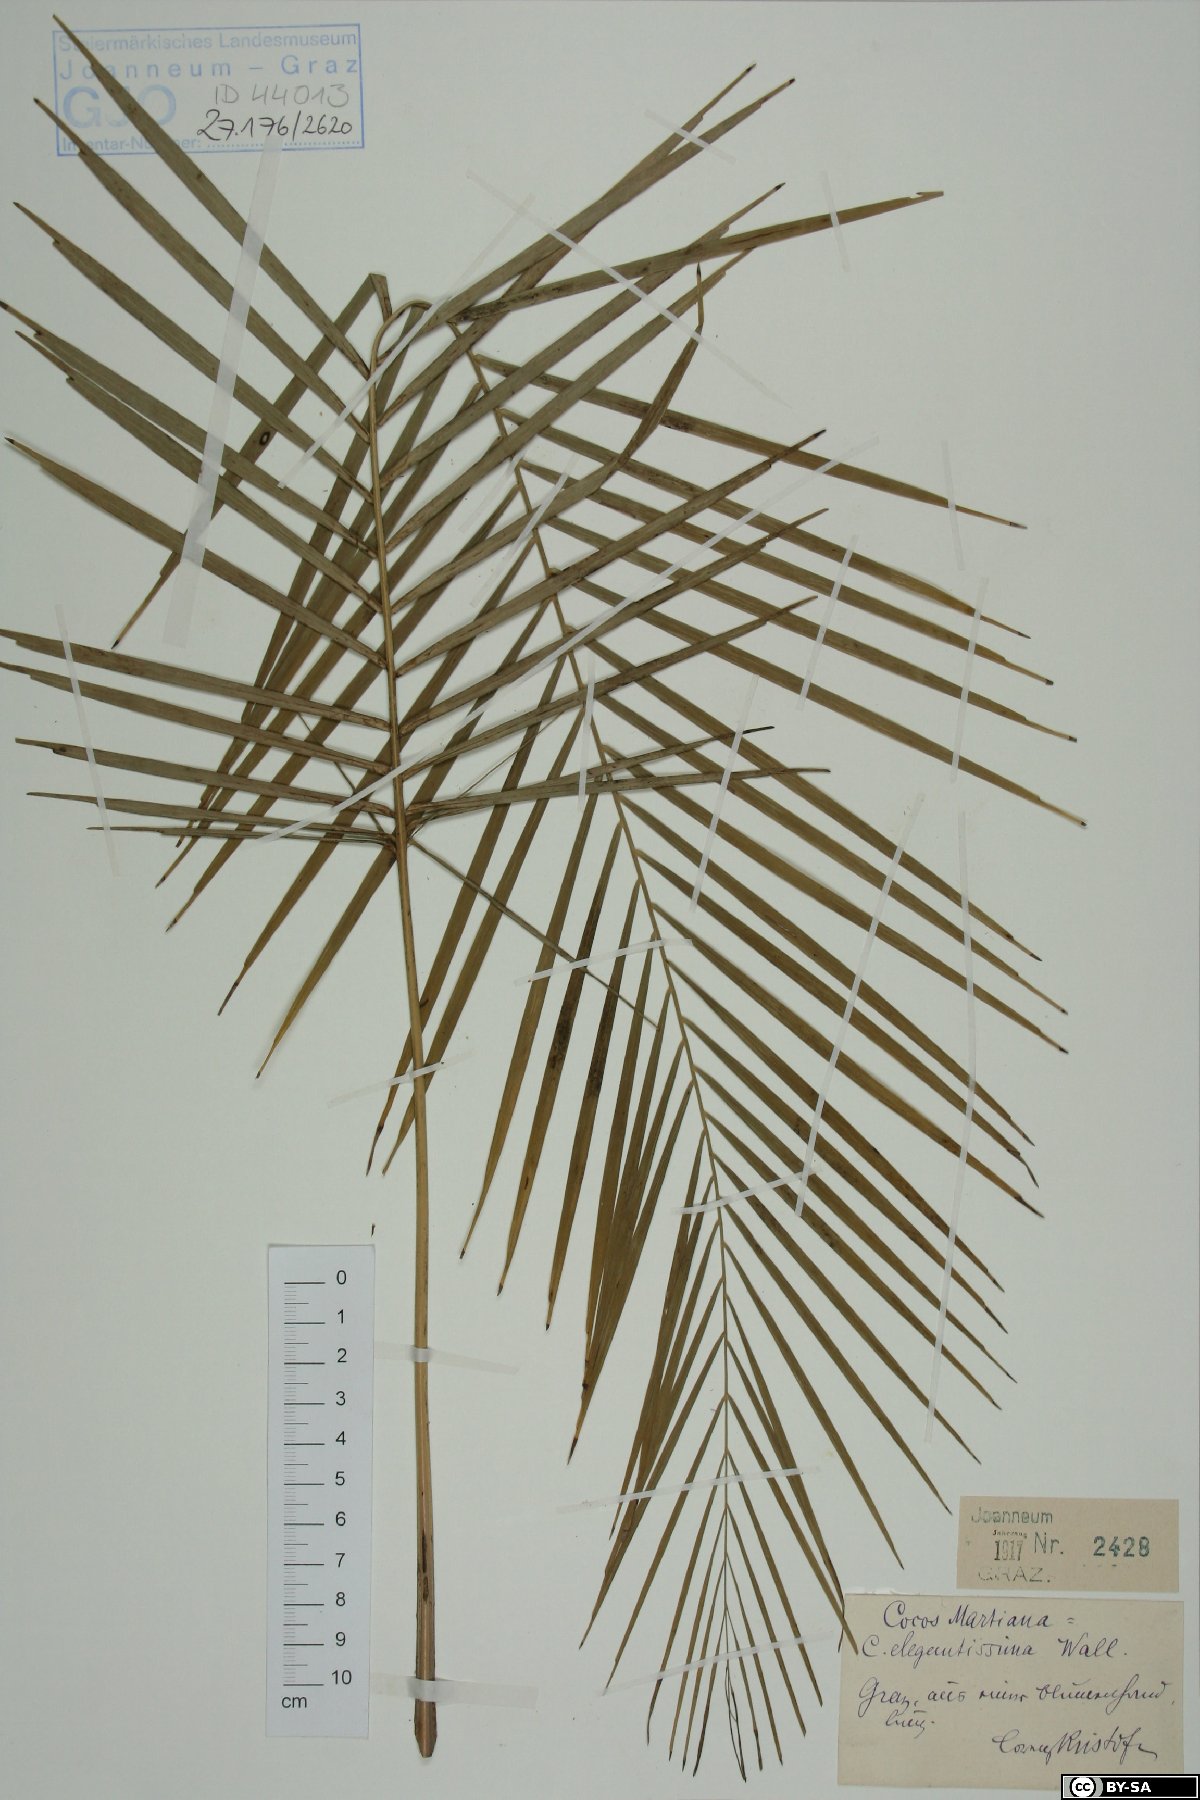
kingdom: Plantae
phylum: Tracheophyta
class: Liliopsida
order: Arecales
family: Arecaceae
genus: Cocos
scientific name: Cocos elegantissima
